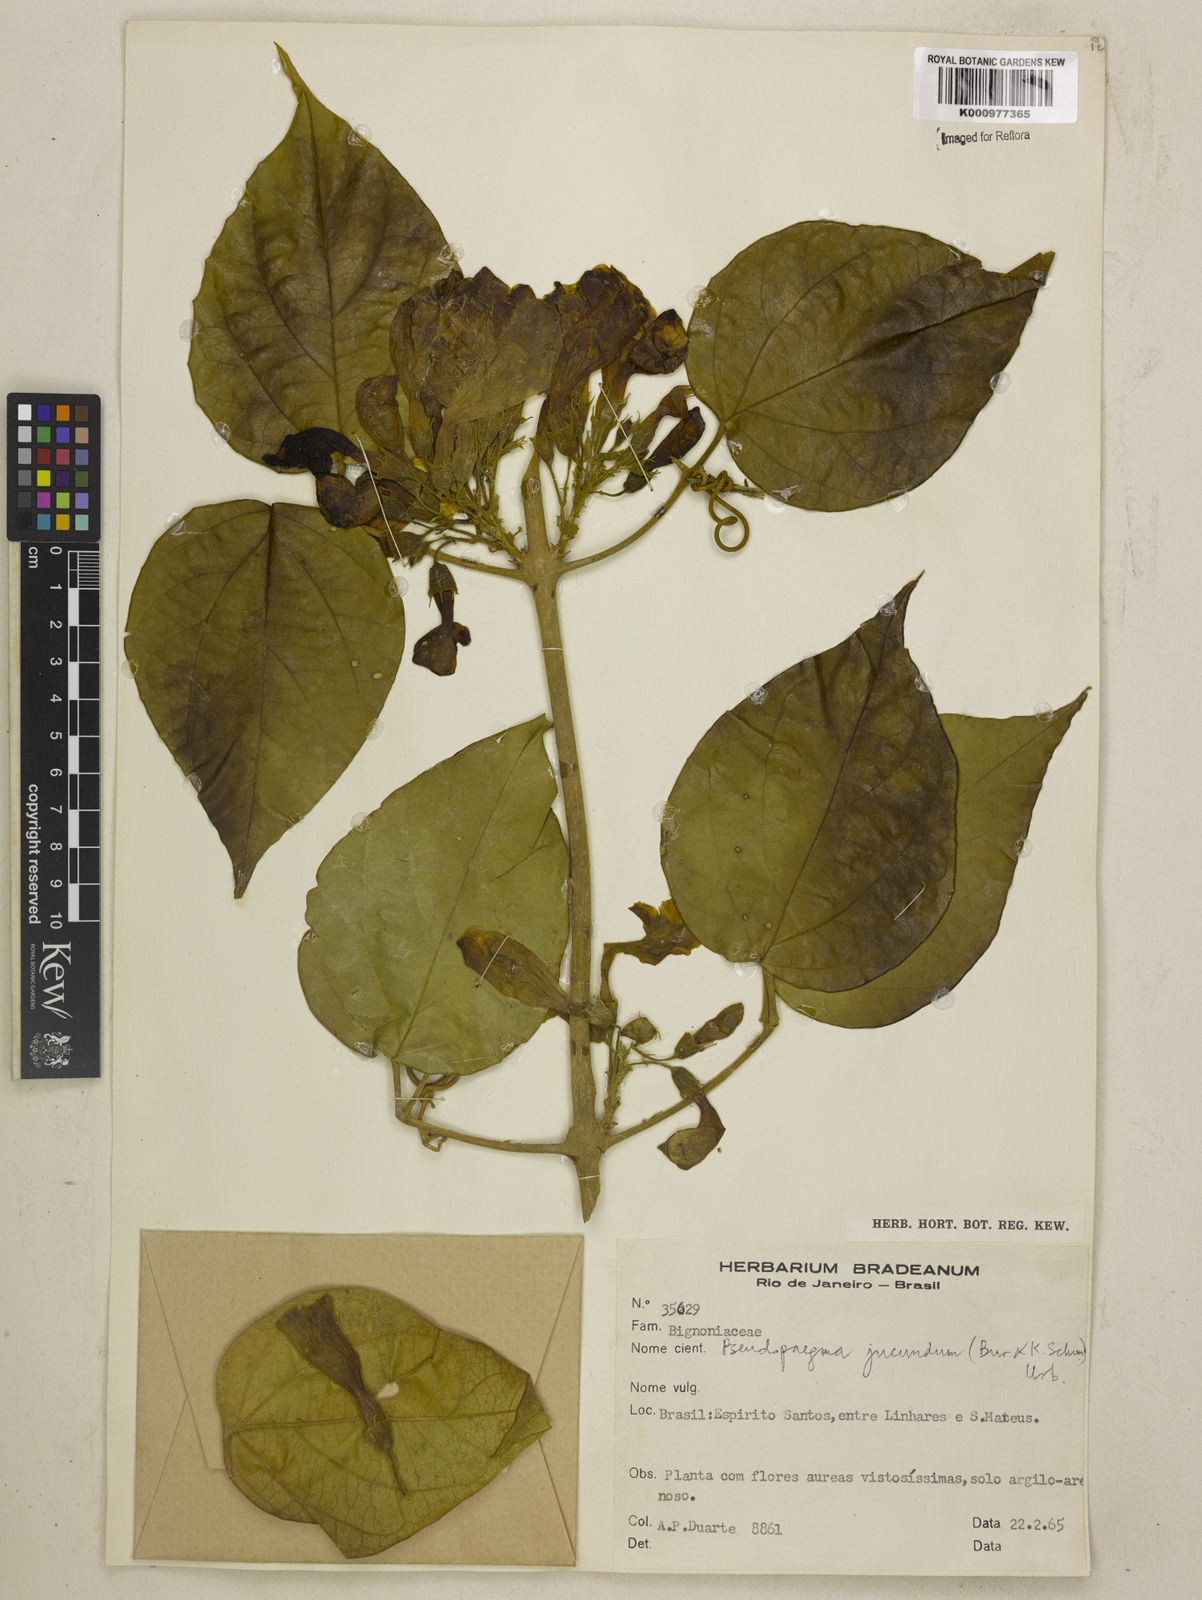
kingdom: Plantae
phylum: Tracheophyta
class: Magnoliopsida
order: Lamiales
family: Bignoniaceae
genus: Anemopaegma
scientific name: Anemopaegma jucundum
